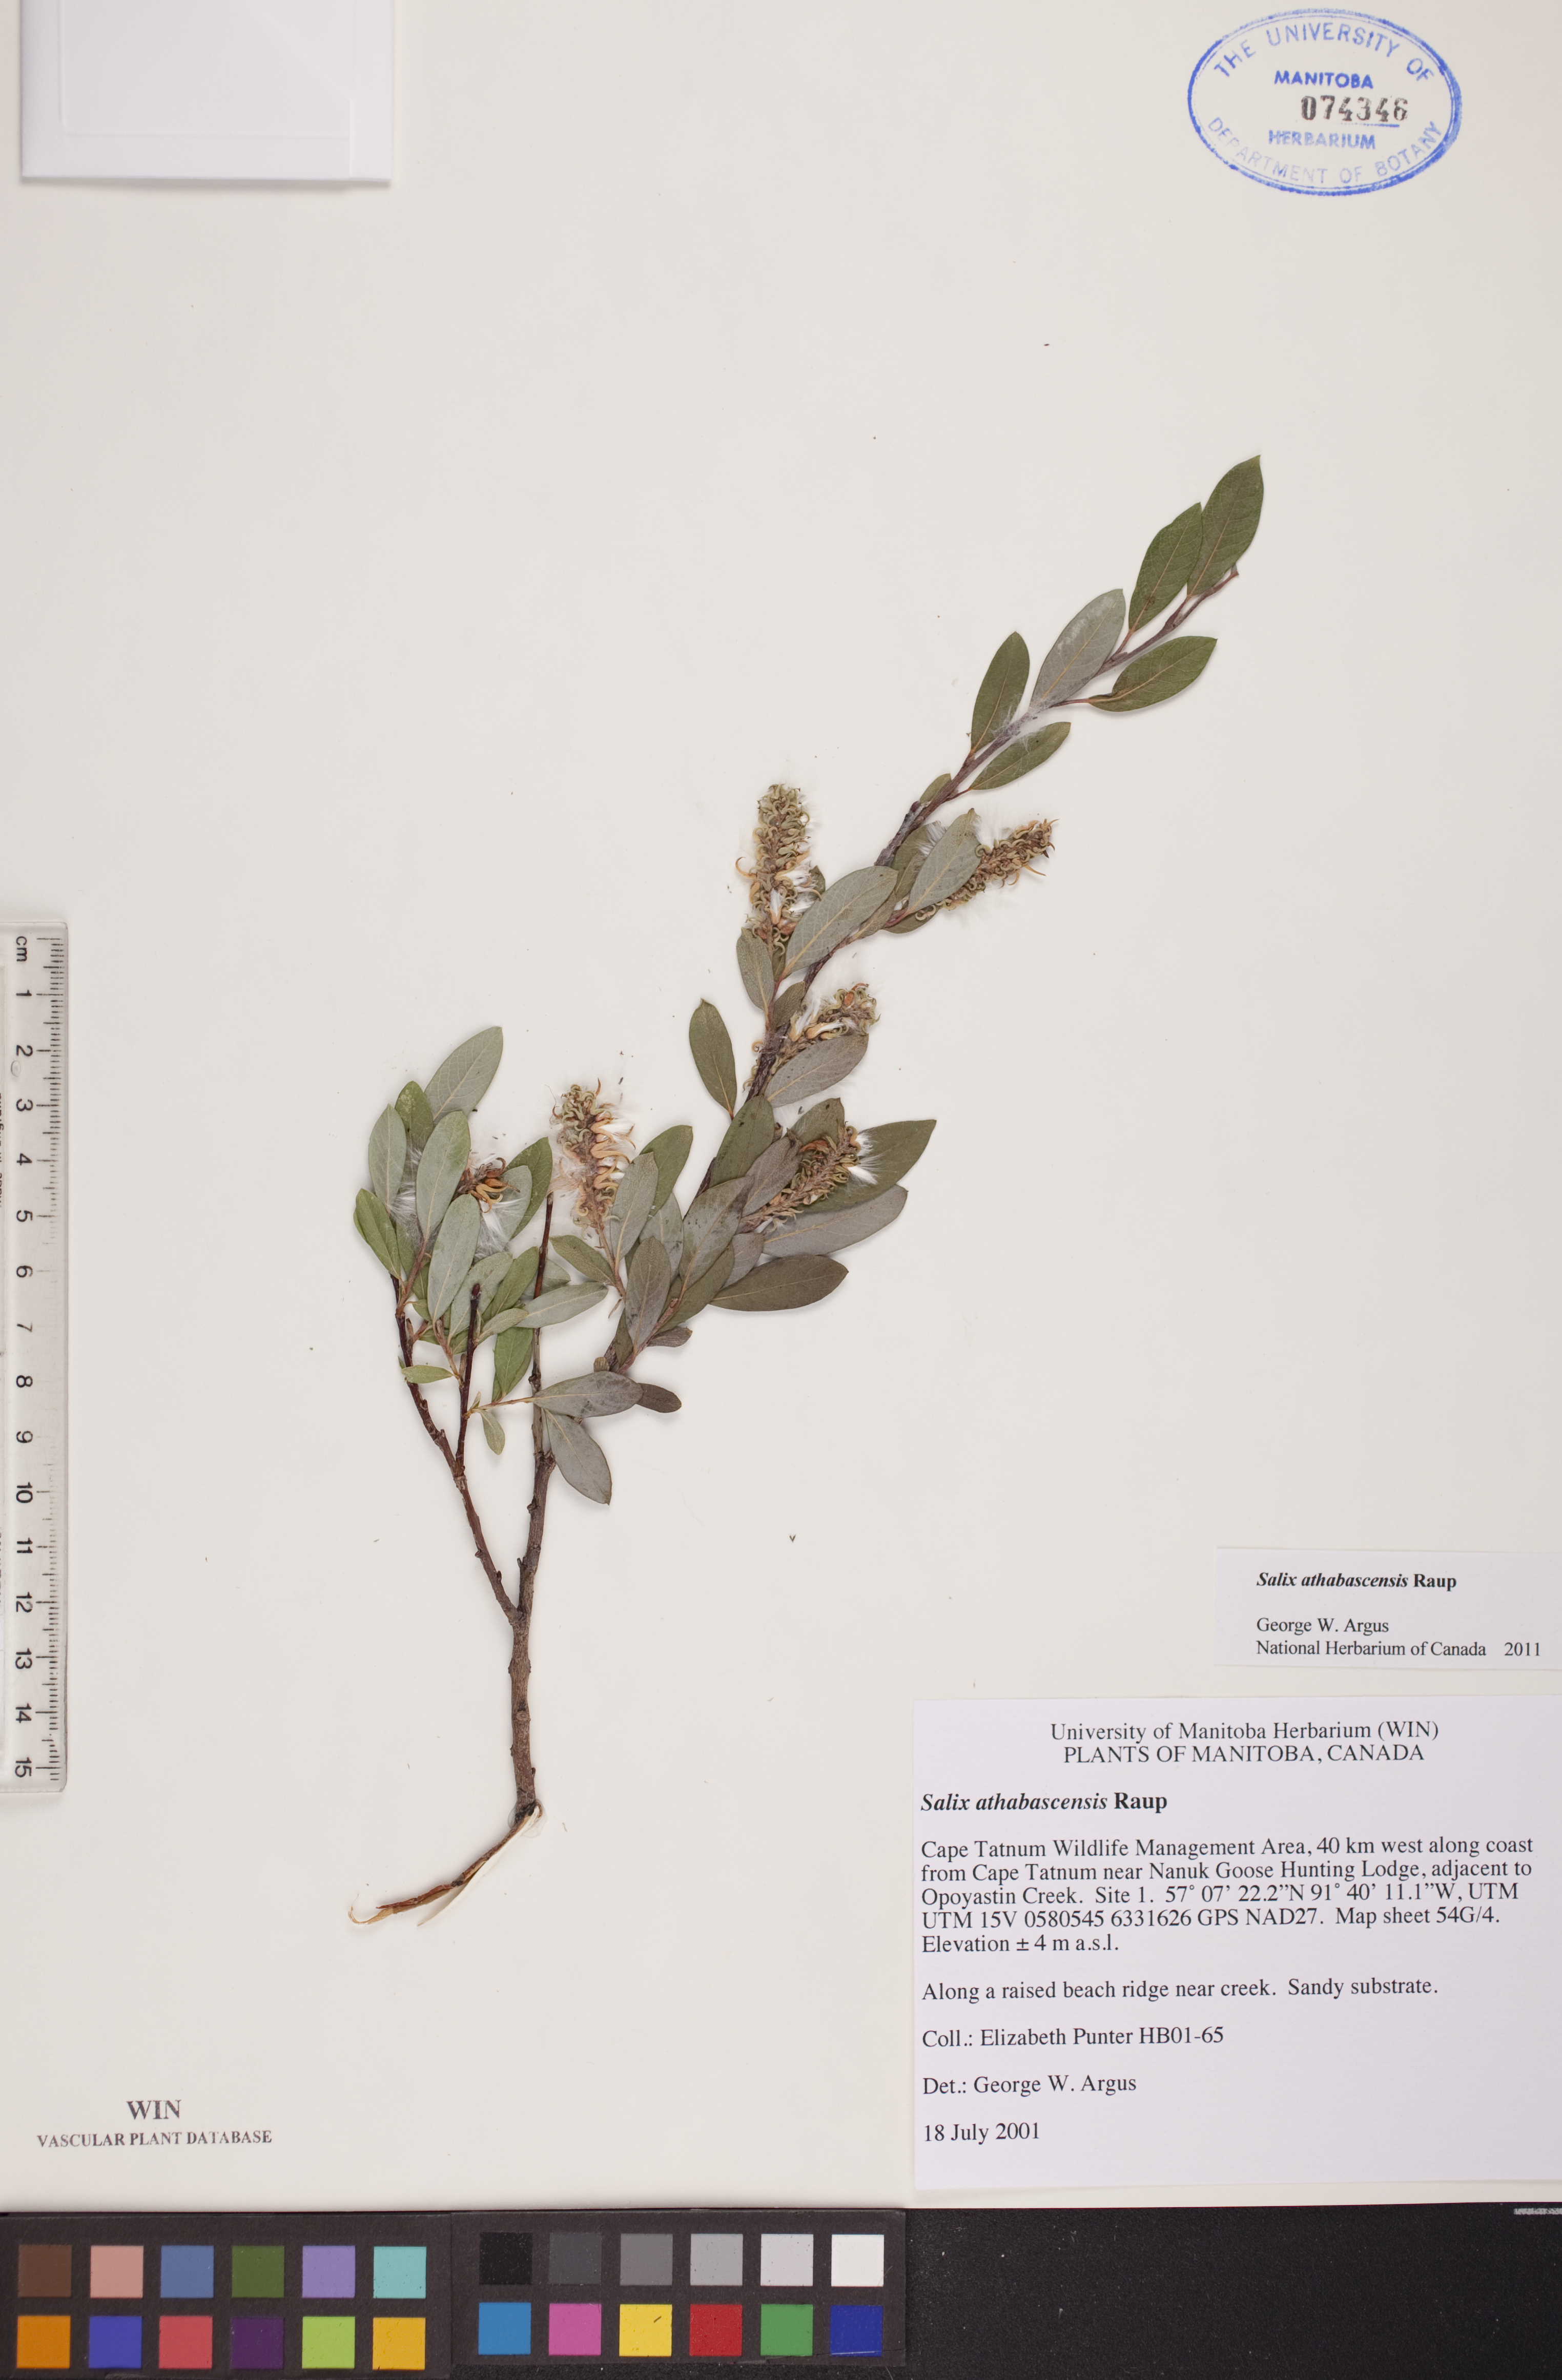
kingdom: Plantae
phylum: Tracheophyta
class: Magnoliopsida
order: Malpighiales
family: Salicaceae
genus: Salix
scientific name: Salix athabascensis
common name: Athabasca willow
